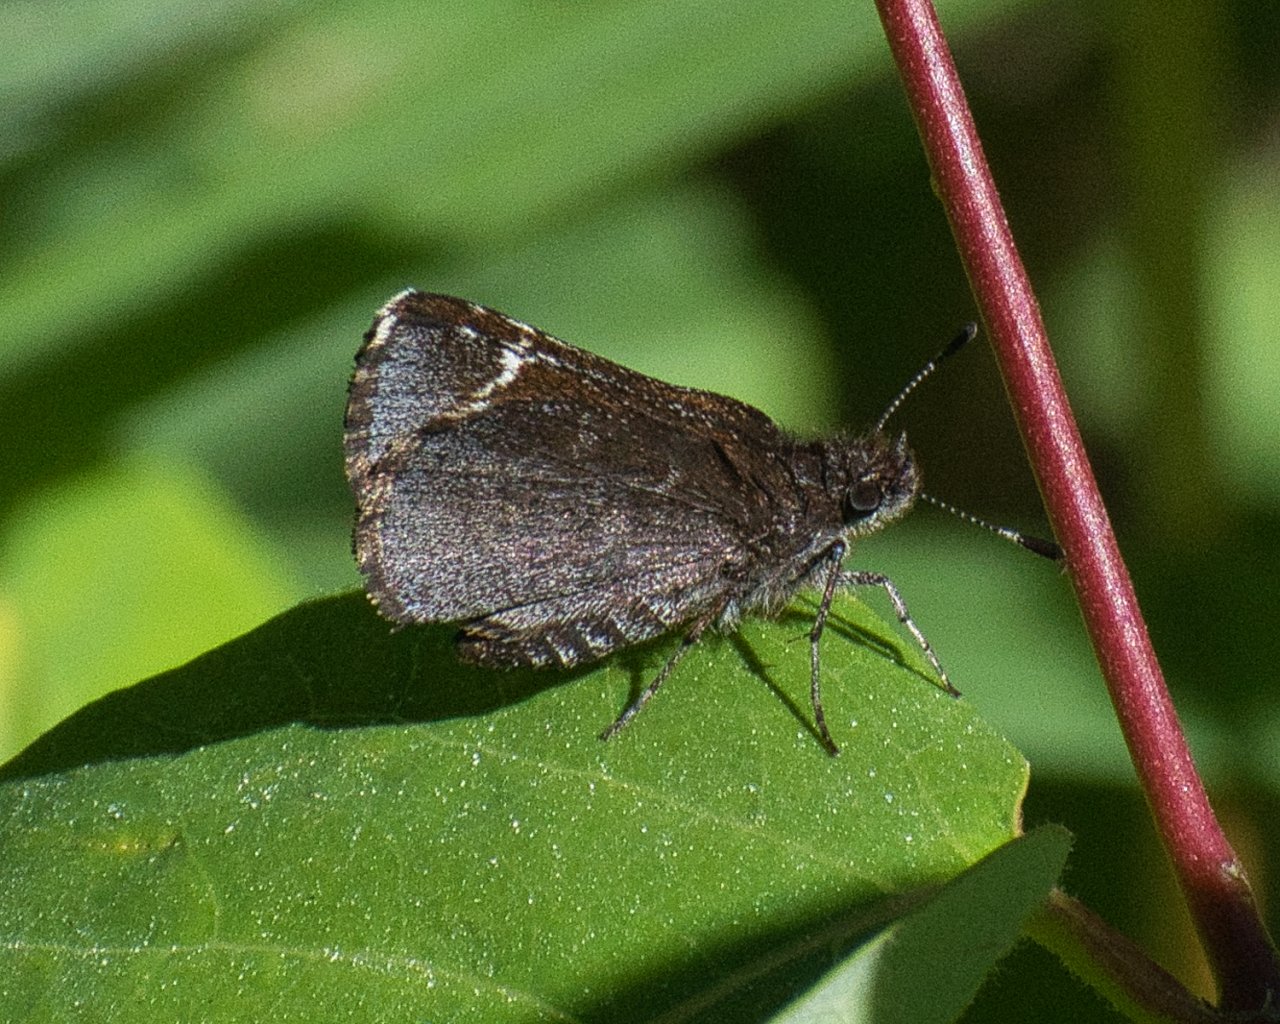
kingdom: Animalia
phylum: Arthropoda
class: Insecta
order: Lepidoptera
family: Hesperiidae
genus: Mastor
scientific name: Mastor vialis
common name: Common Roadside-Skipper
